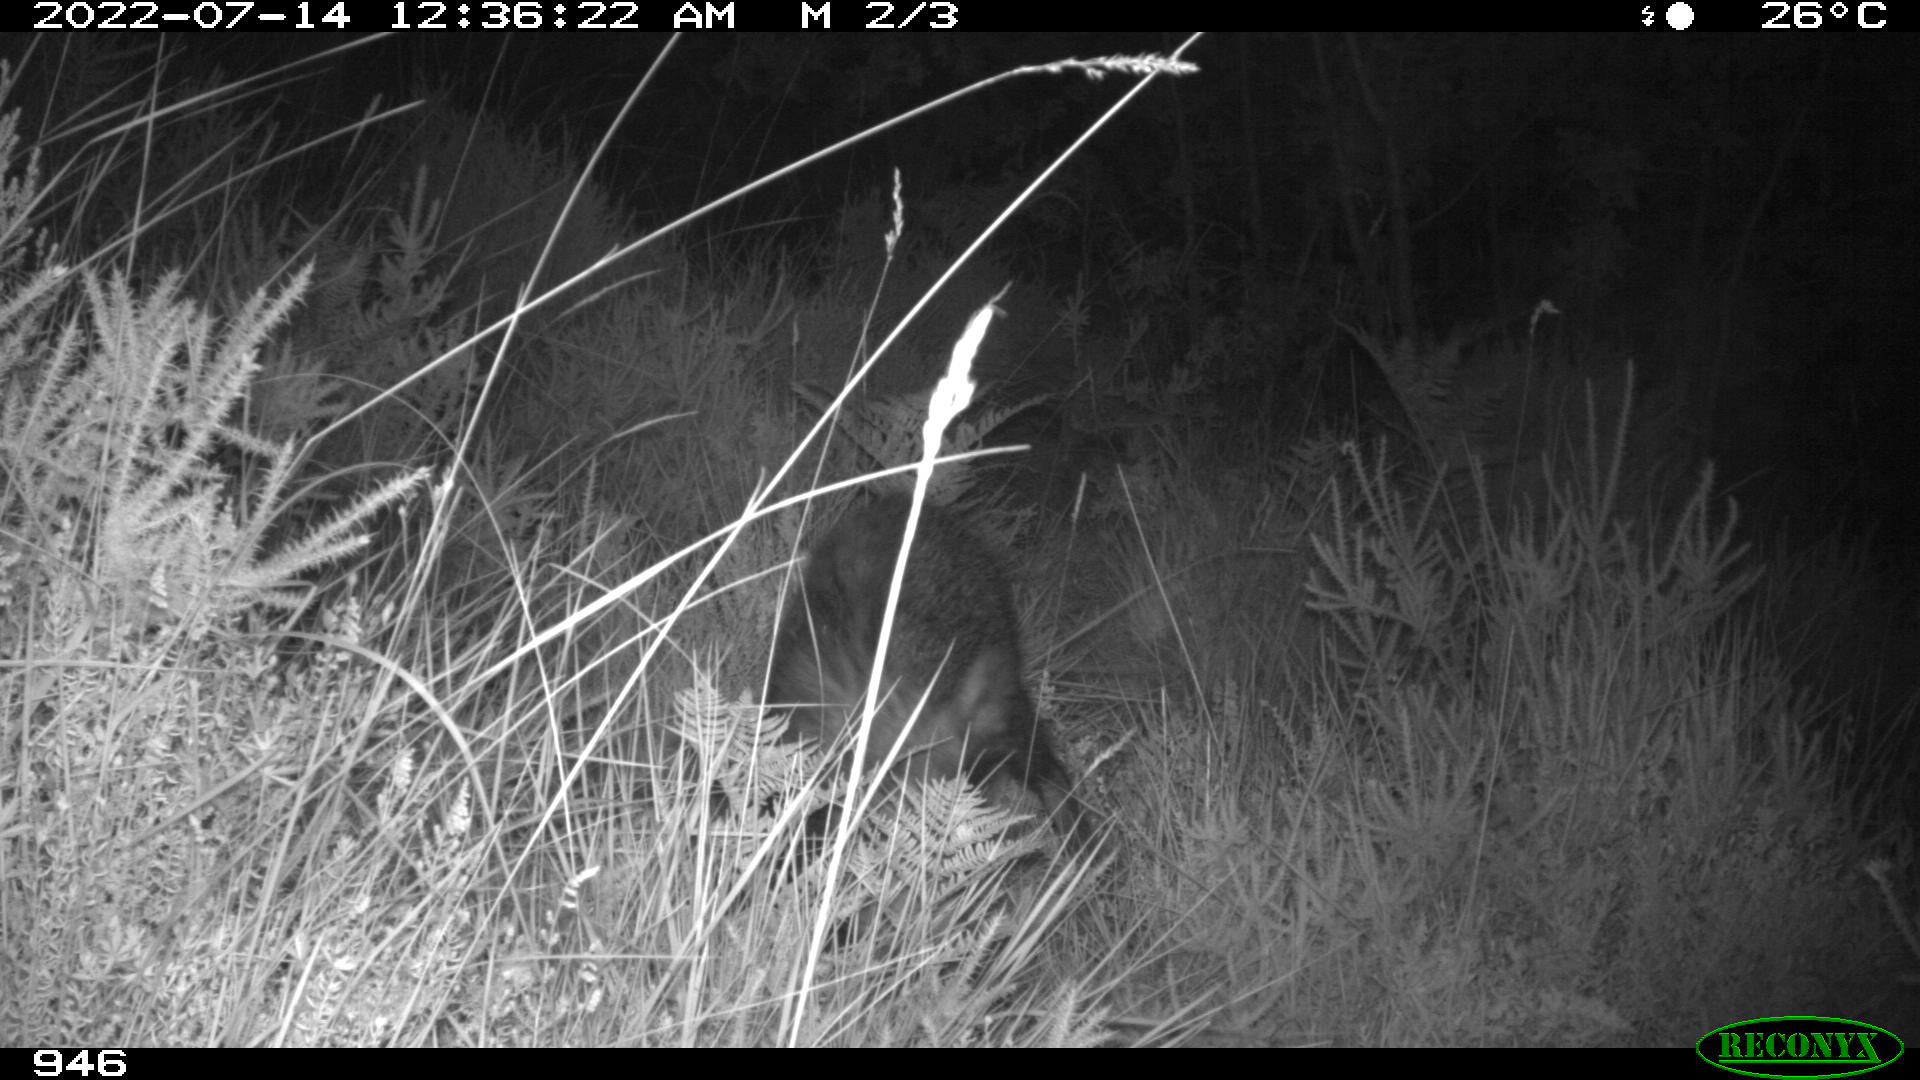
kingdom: Animalia
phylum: Chordata
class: Mammalia
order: Artiodactyla
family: Suidae
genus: Sus
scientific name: Sus scrofa
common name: Wild boar
